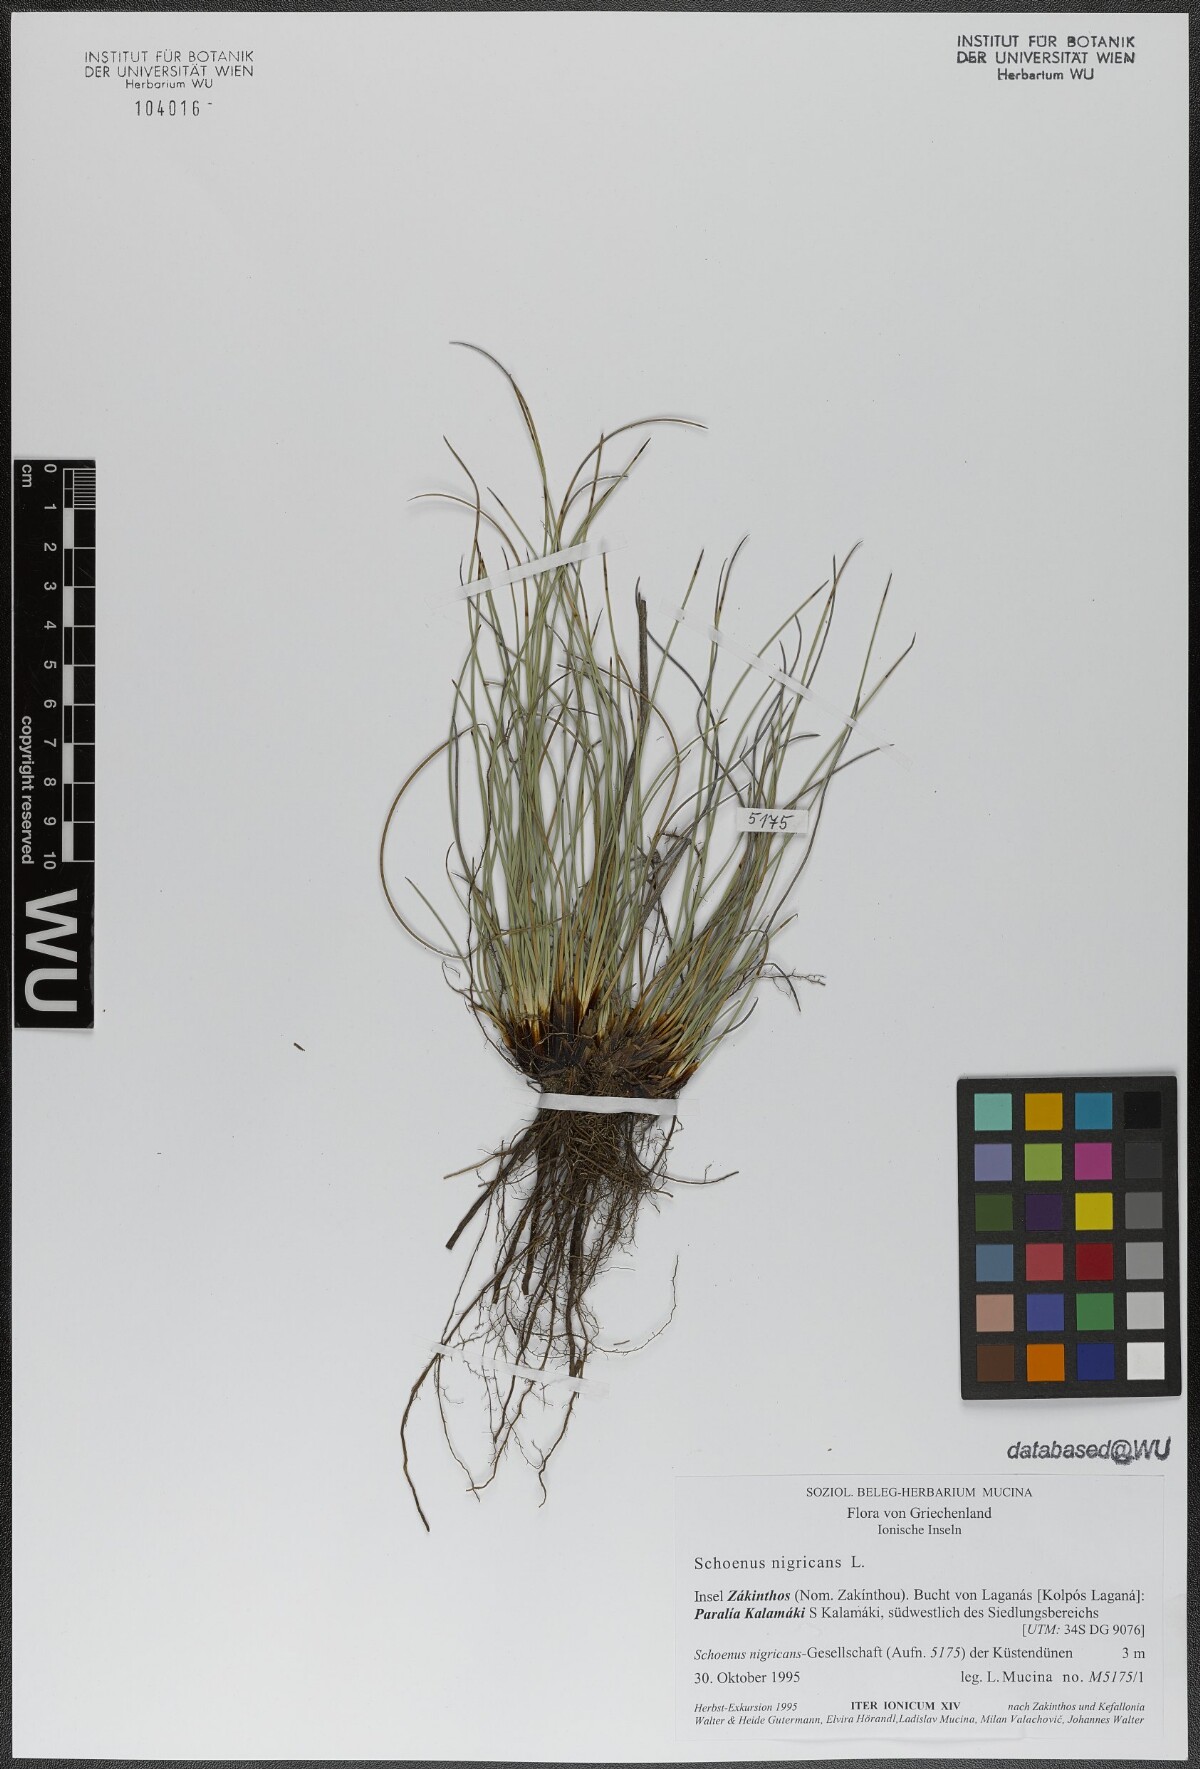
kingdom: Plantae
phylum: Tracheophyta
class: Liliopsida
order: Poales
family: Cyperaceae
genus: Schoenus
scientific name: Schoenus nigricans
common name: Black bog-rush
